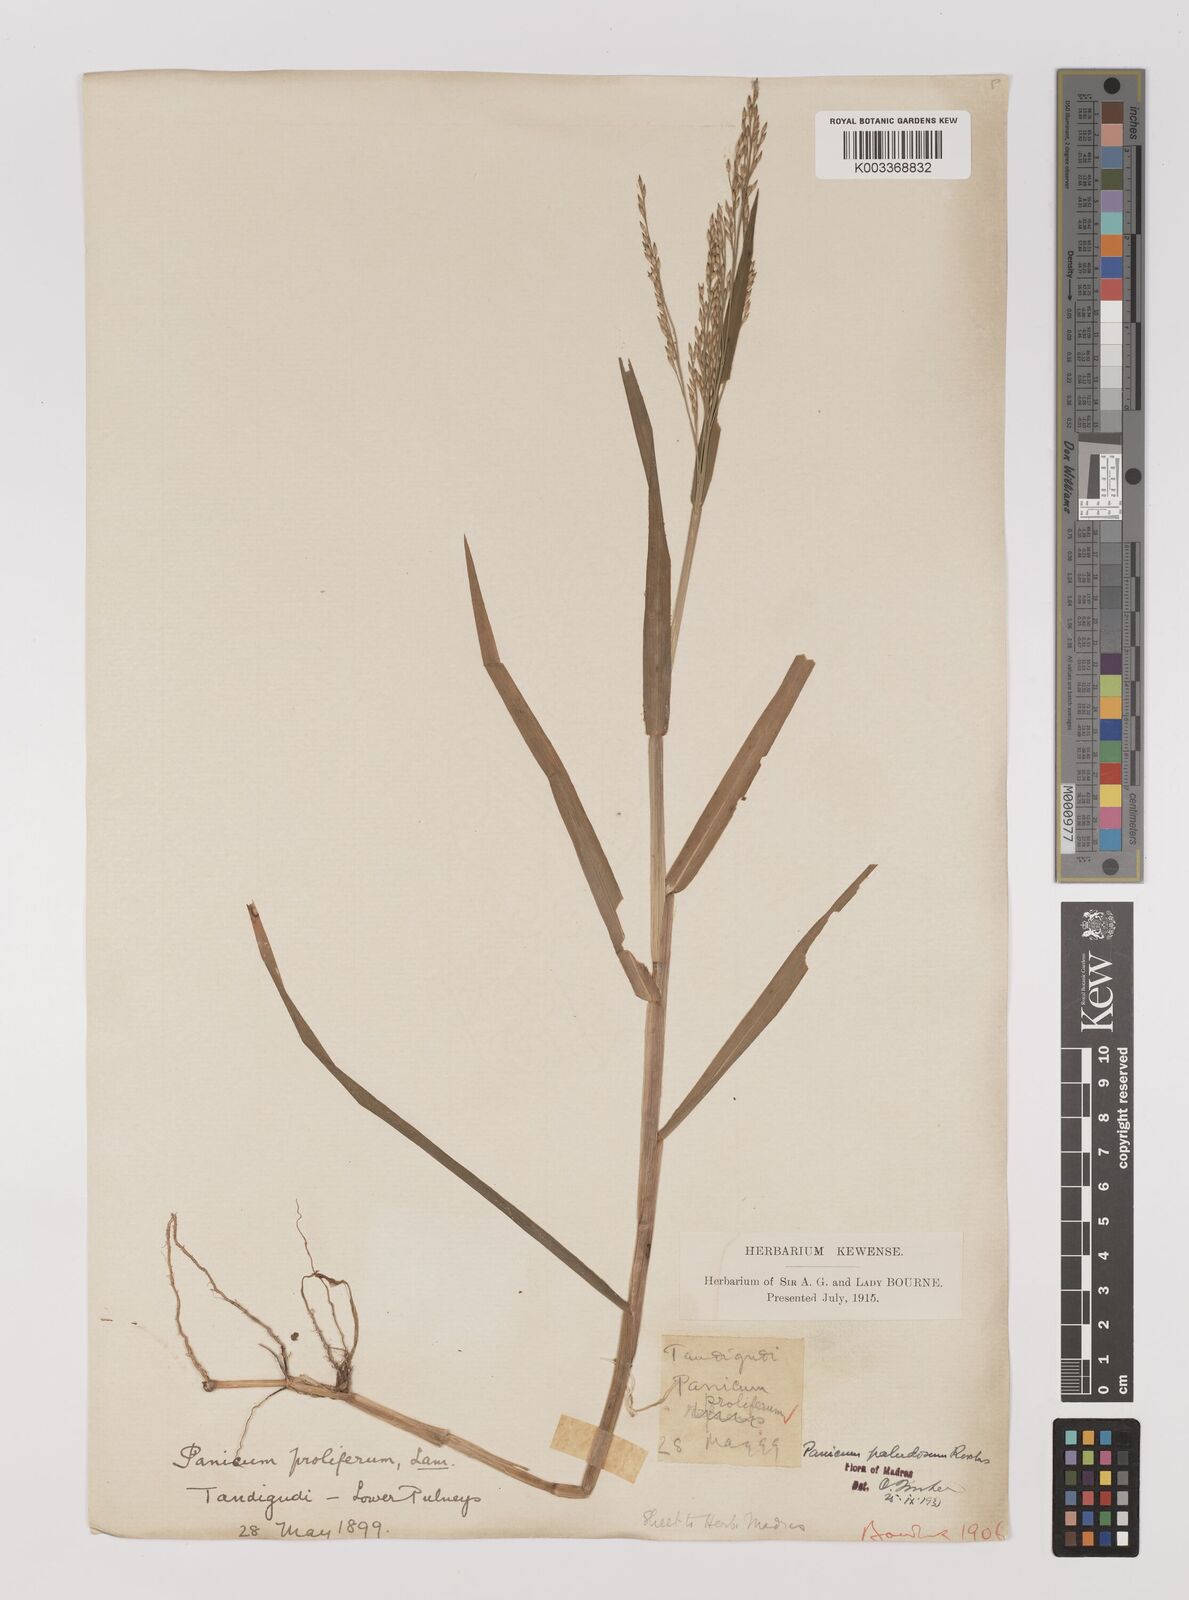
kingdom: Plantae
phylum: Tracheophyta
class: Liliopsida
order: Poales
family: Poaceae
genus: Louisiella
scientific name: Louisiella paludosa
